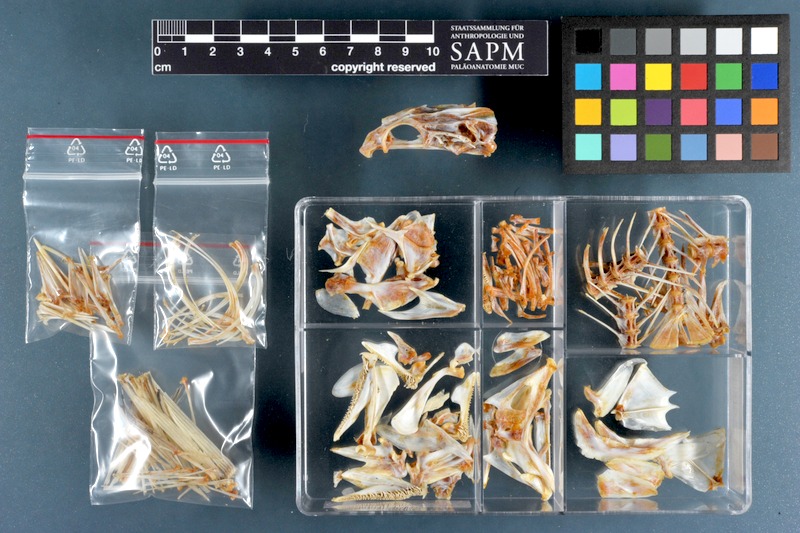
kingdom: Animalia
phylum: Chordata
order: Perciformes
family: Serranidae
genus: Cephalopholis
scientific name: Cephalopholis hemistiktos
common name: Halfspotted hind
